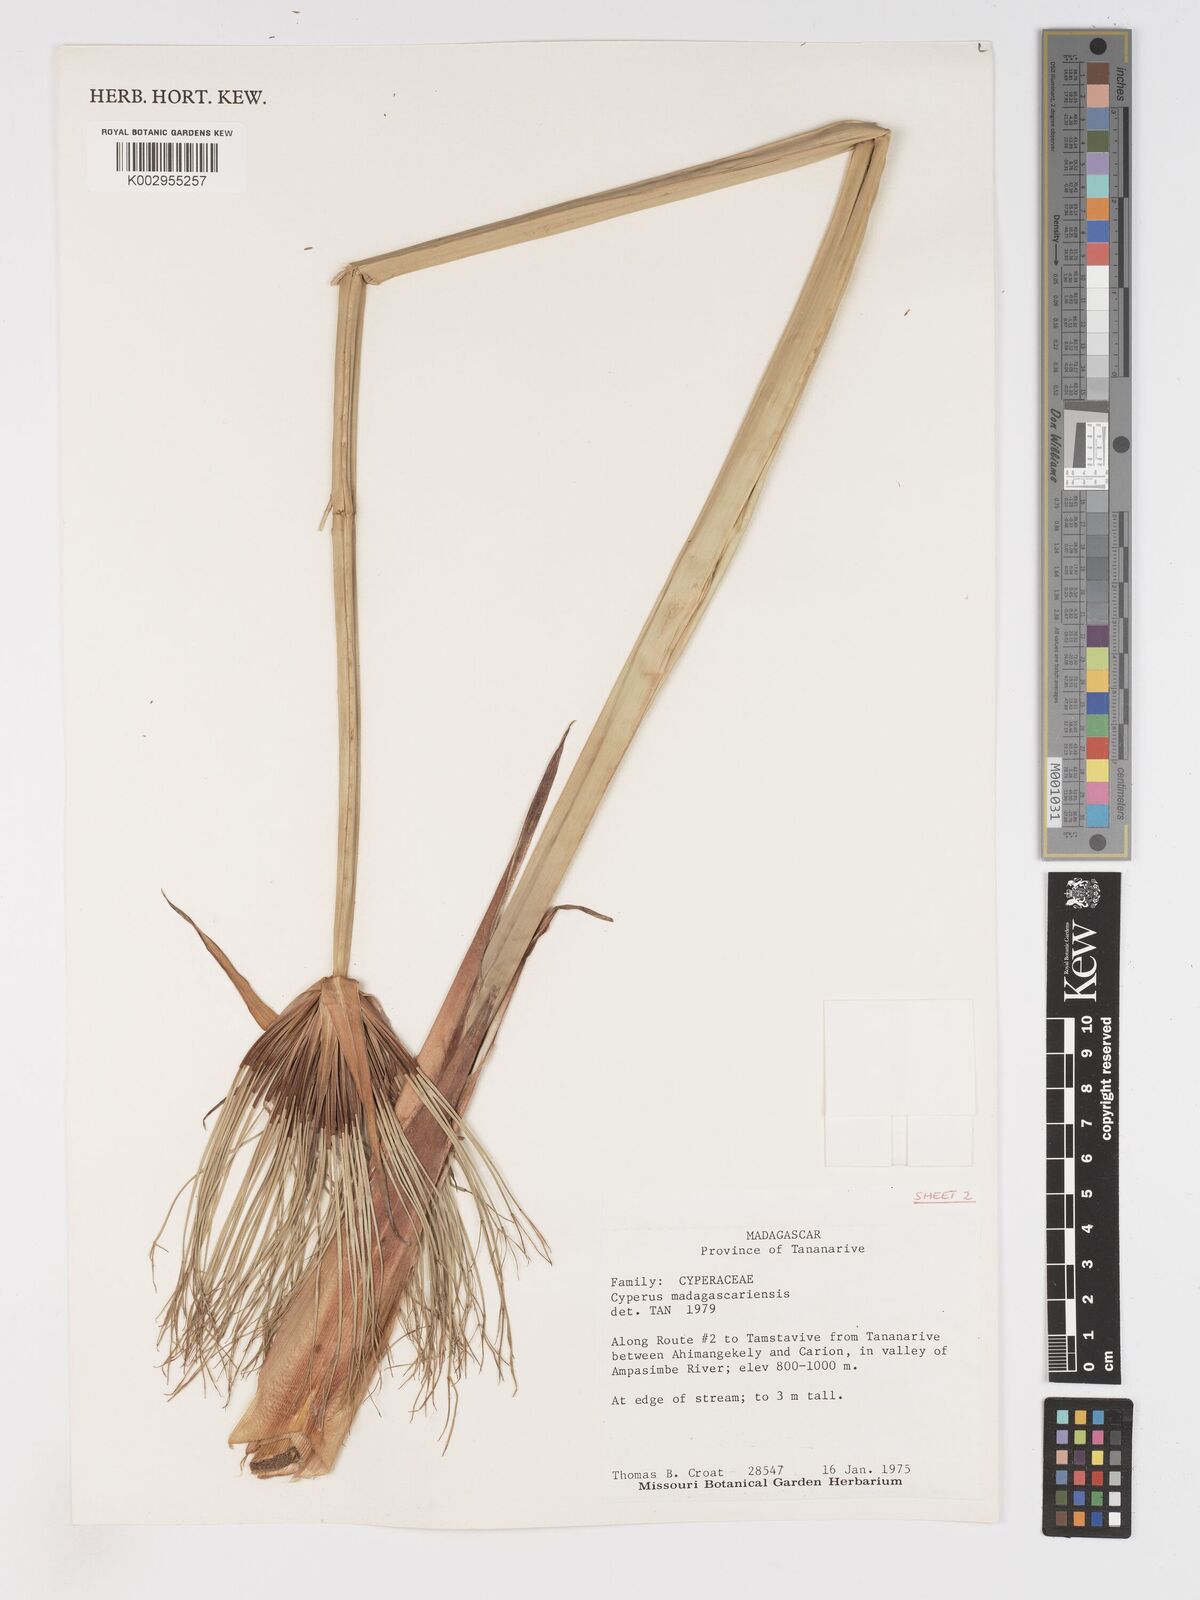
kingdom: Plantae
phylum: Tracheophyta
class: Liliopsida
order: Poales
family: Cyperaceae
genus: Cyperus
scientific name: Cyperus papyrus
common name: Papyrus
